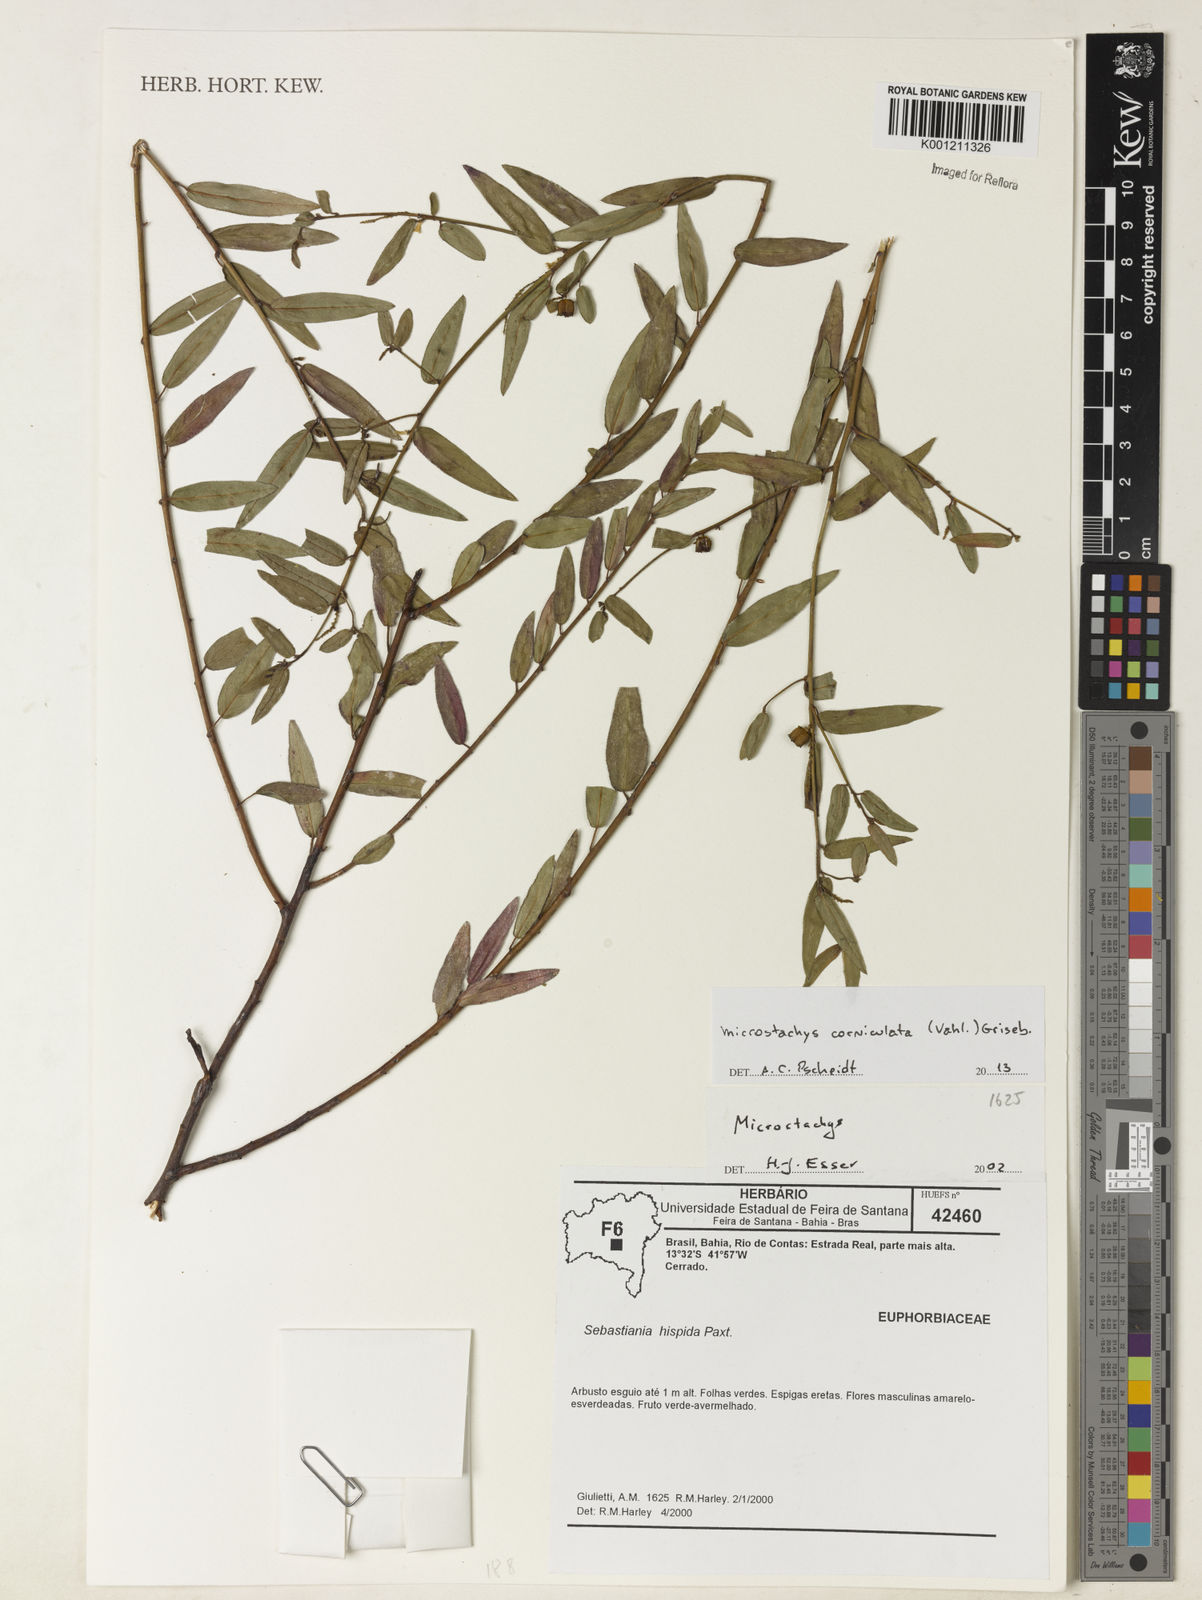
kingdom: Plantae
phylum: Tracheophyta
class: Magnoliopsida
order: Malpighiales
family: Euphorbiaceae
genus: Microstachys
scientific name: Microstachys corniculata
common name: Hato tejas
